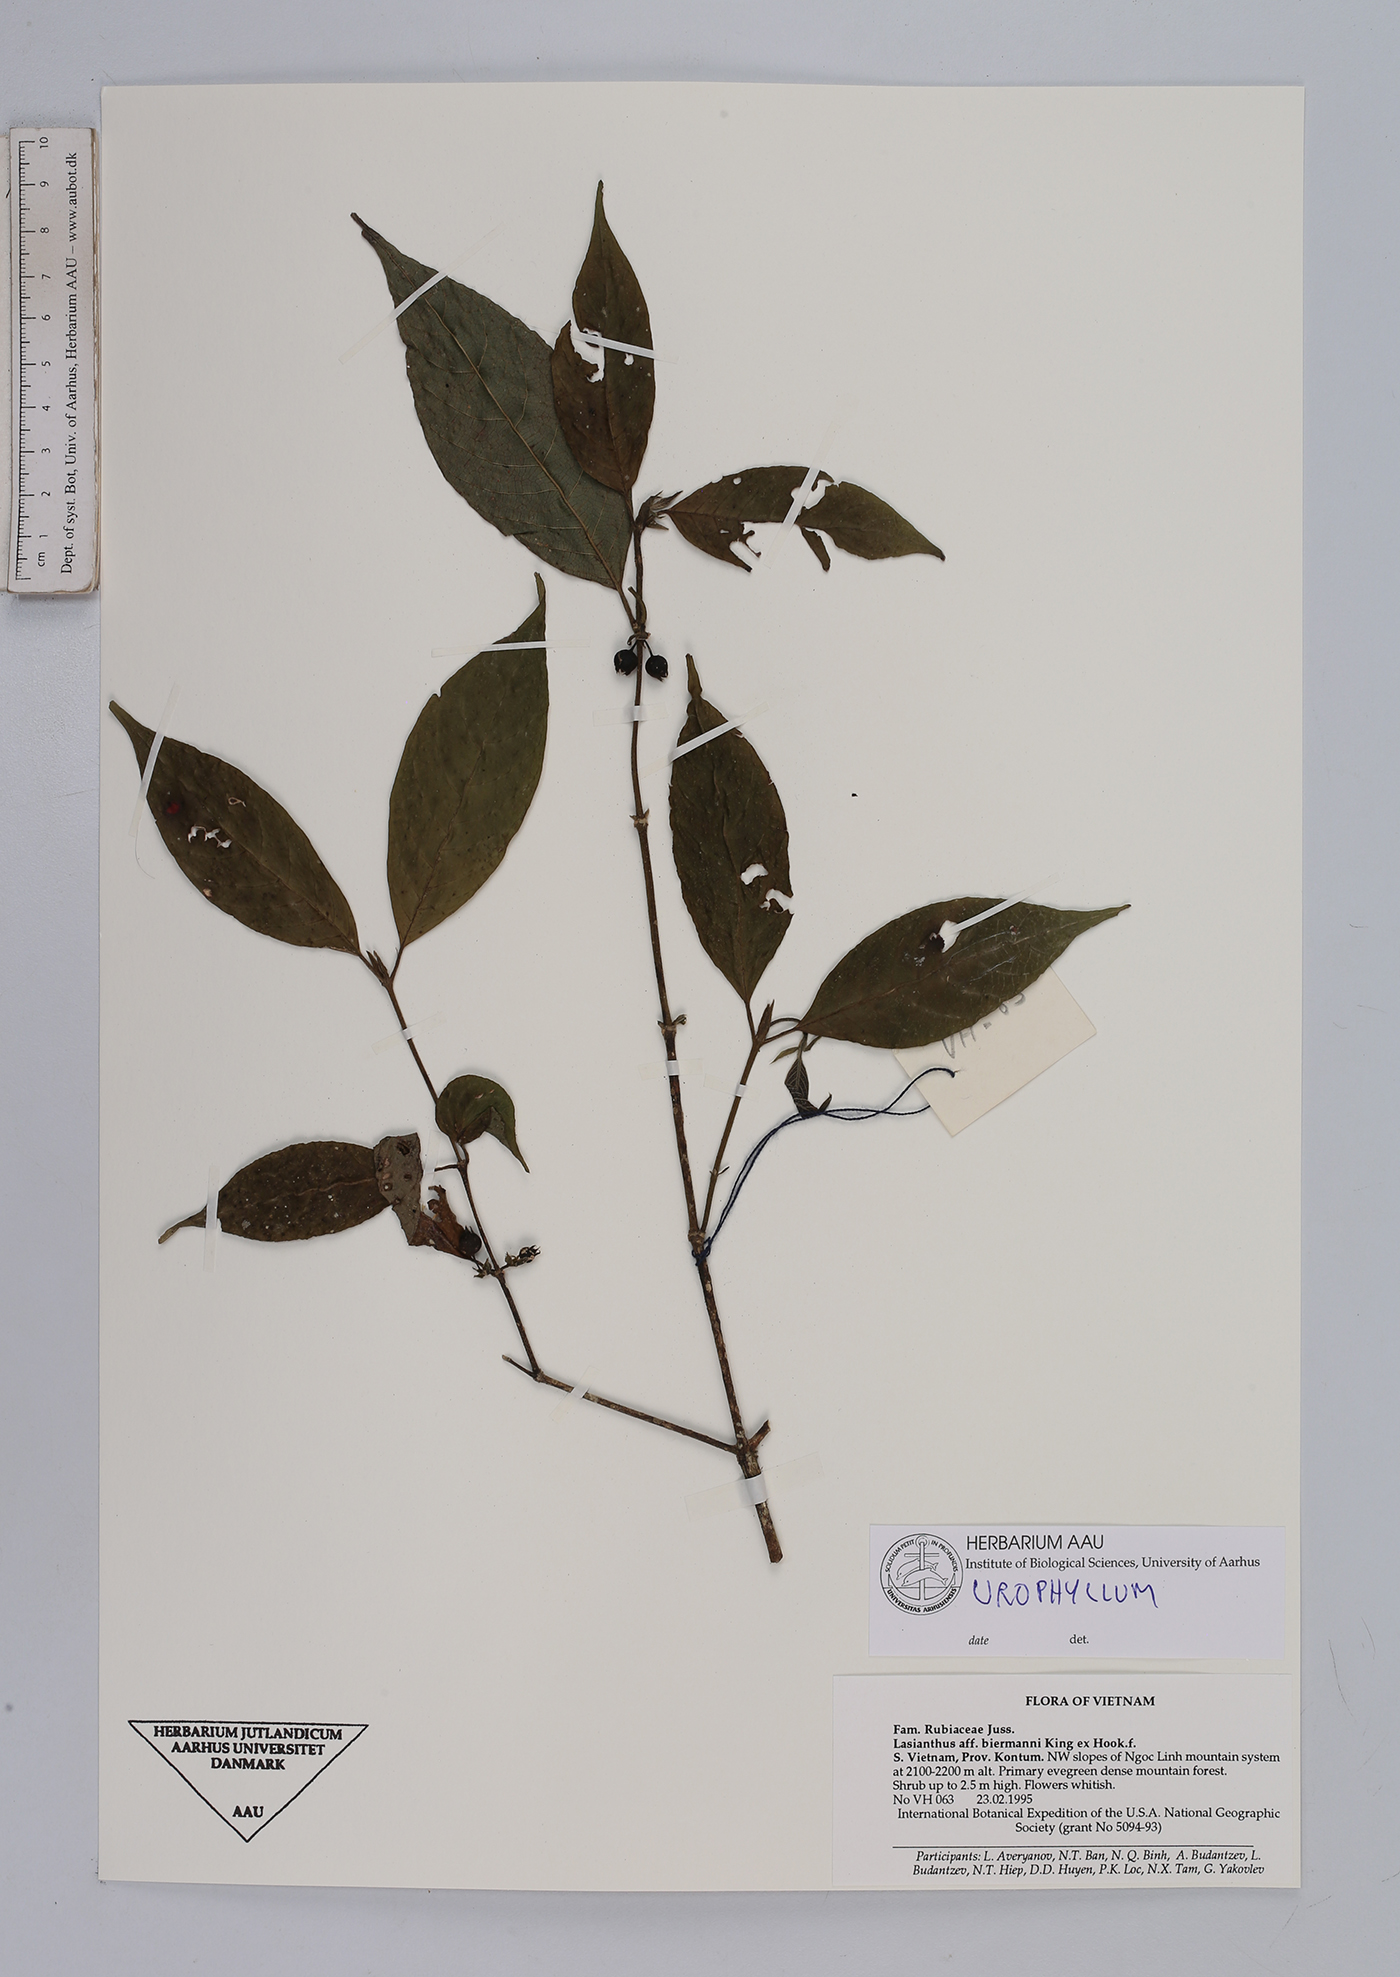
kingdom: Plantae
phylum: Tracheophyta
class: Magnoliopsida
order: Gentianales
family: Rubiaceae
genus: Urophyllum
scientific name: Urophyllum
